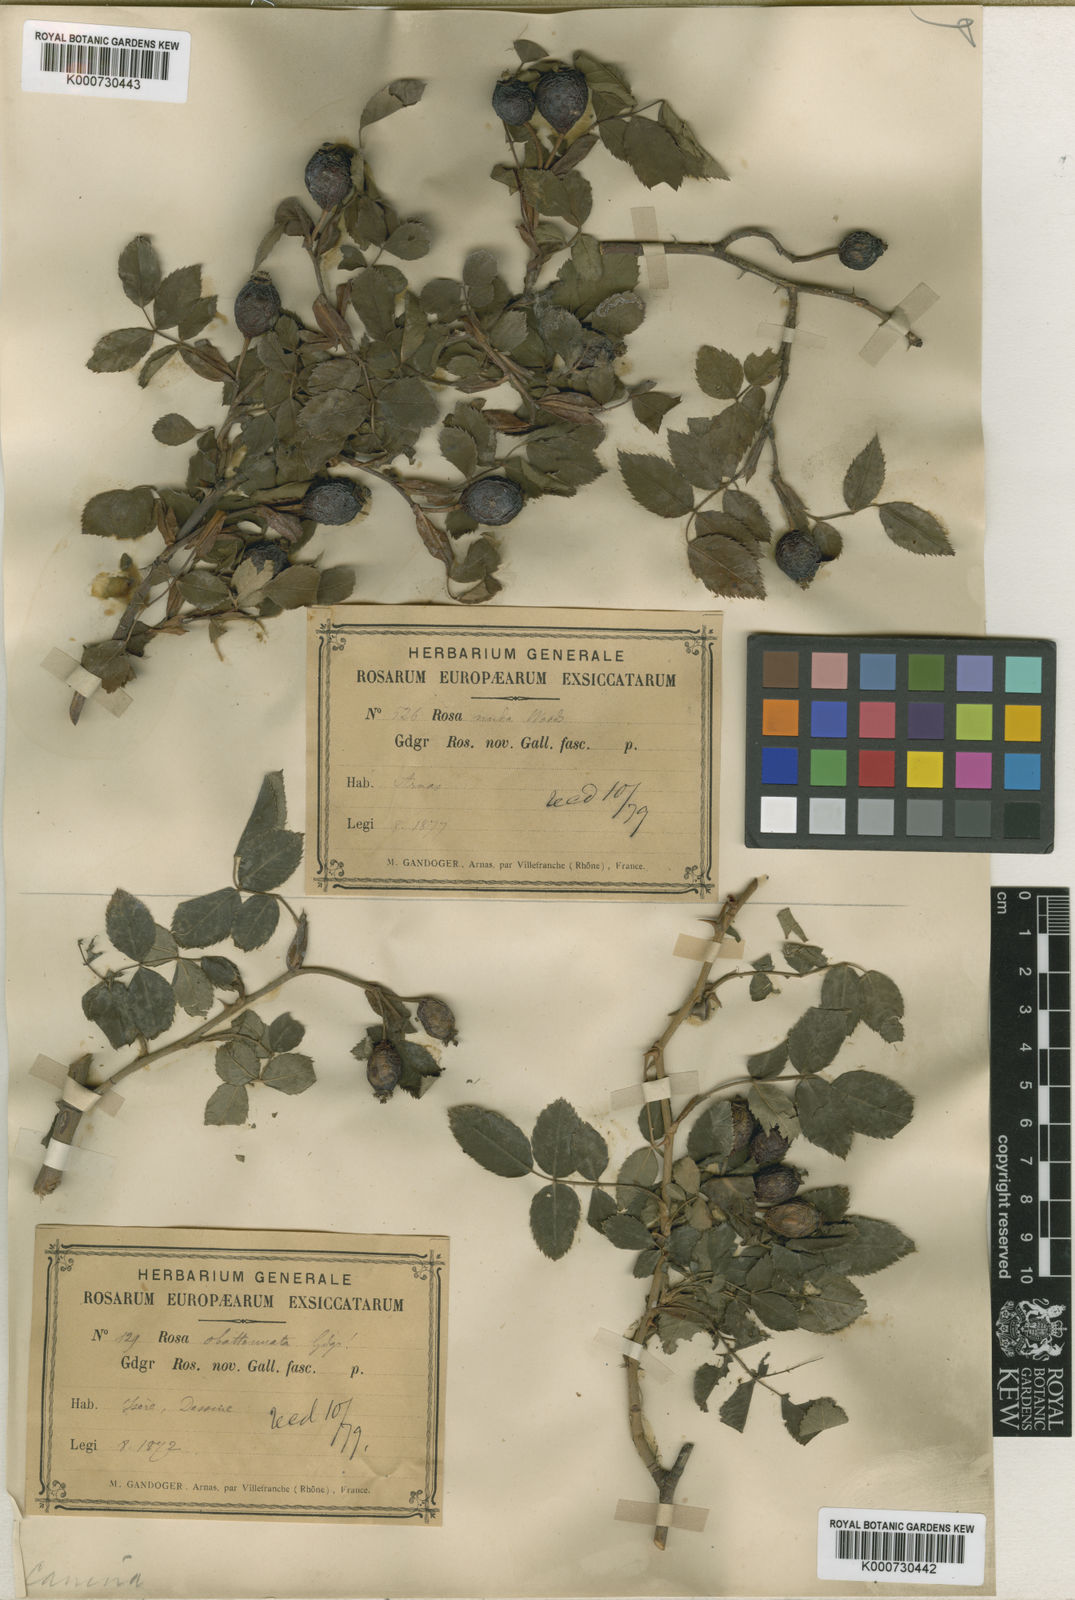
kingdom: Plantae
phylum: Tracheophyta
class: Magnoliopsida
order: Rosales
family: Rosaceae
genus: Rosa
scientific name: Rosa canina
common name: Dog rose
